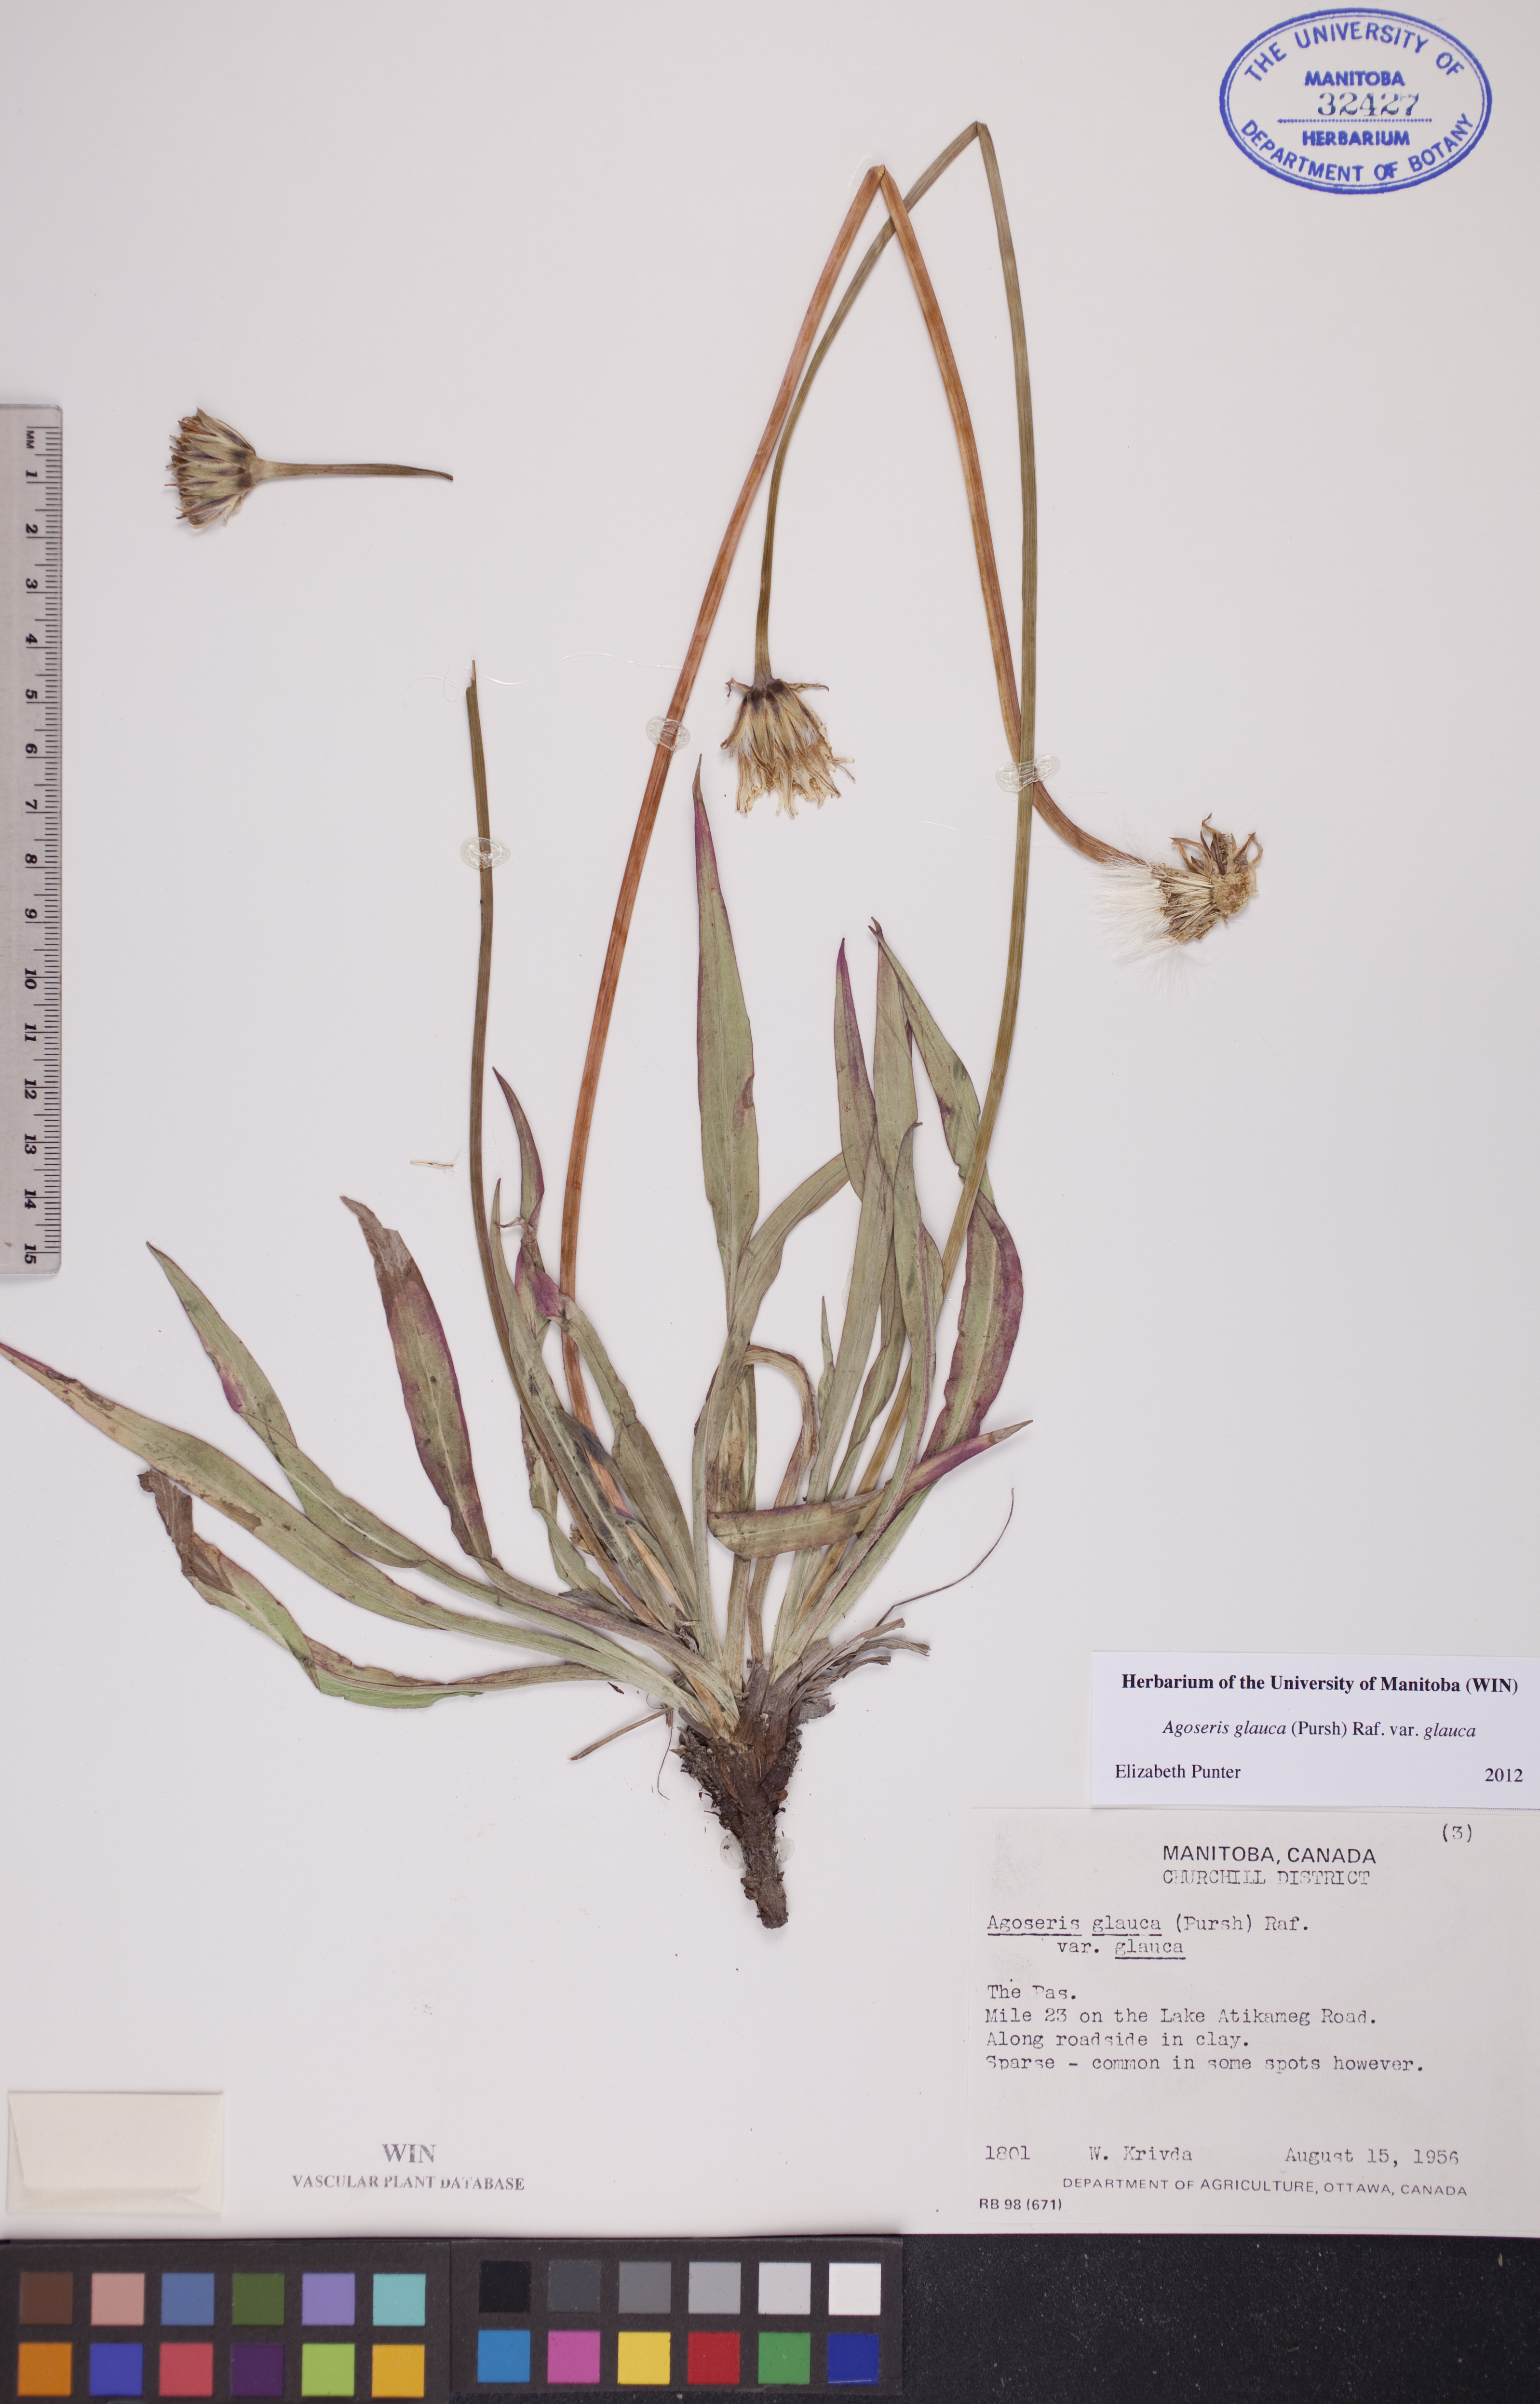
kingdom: Plantae
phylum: Tracheophyta
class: Magnoliopsida
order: Asterales
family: Asteraceae
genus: Agoseris
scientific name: Agoseris glauca
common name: Prairie agoseris
